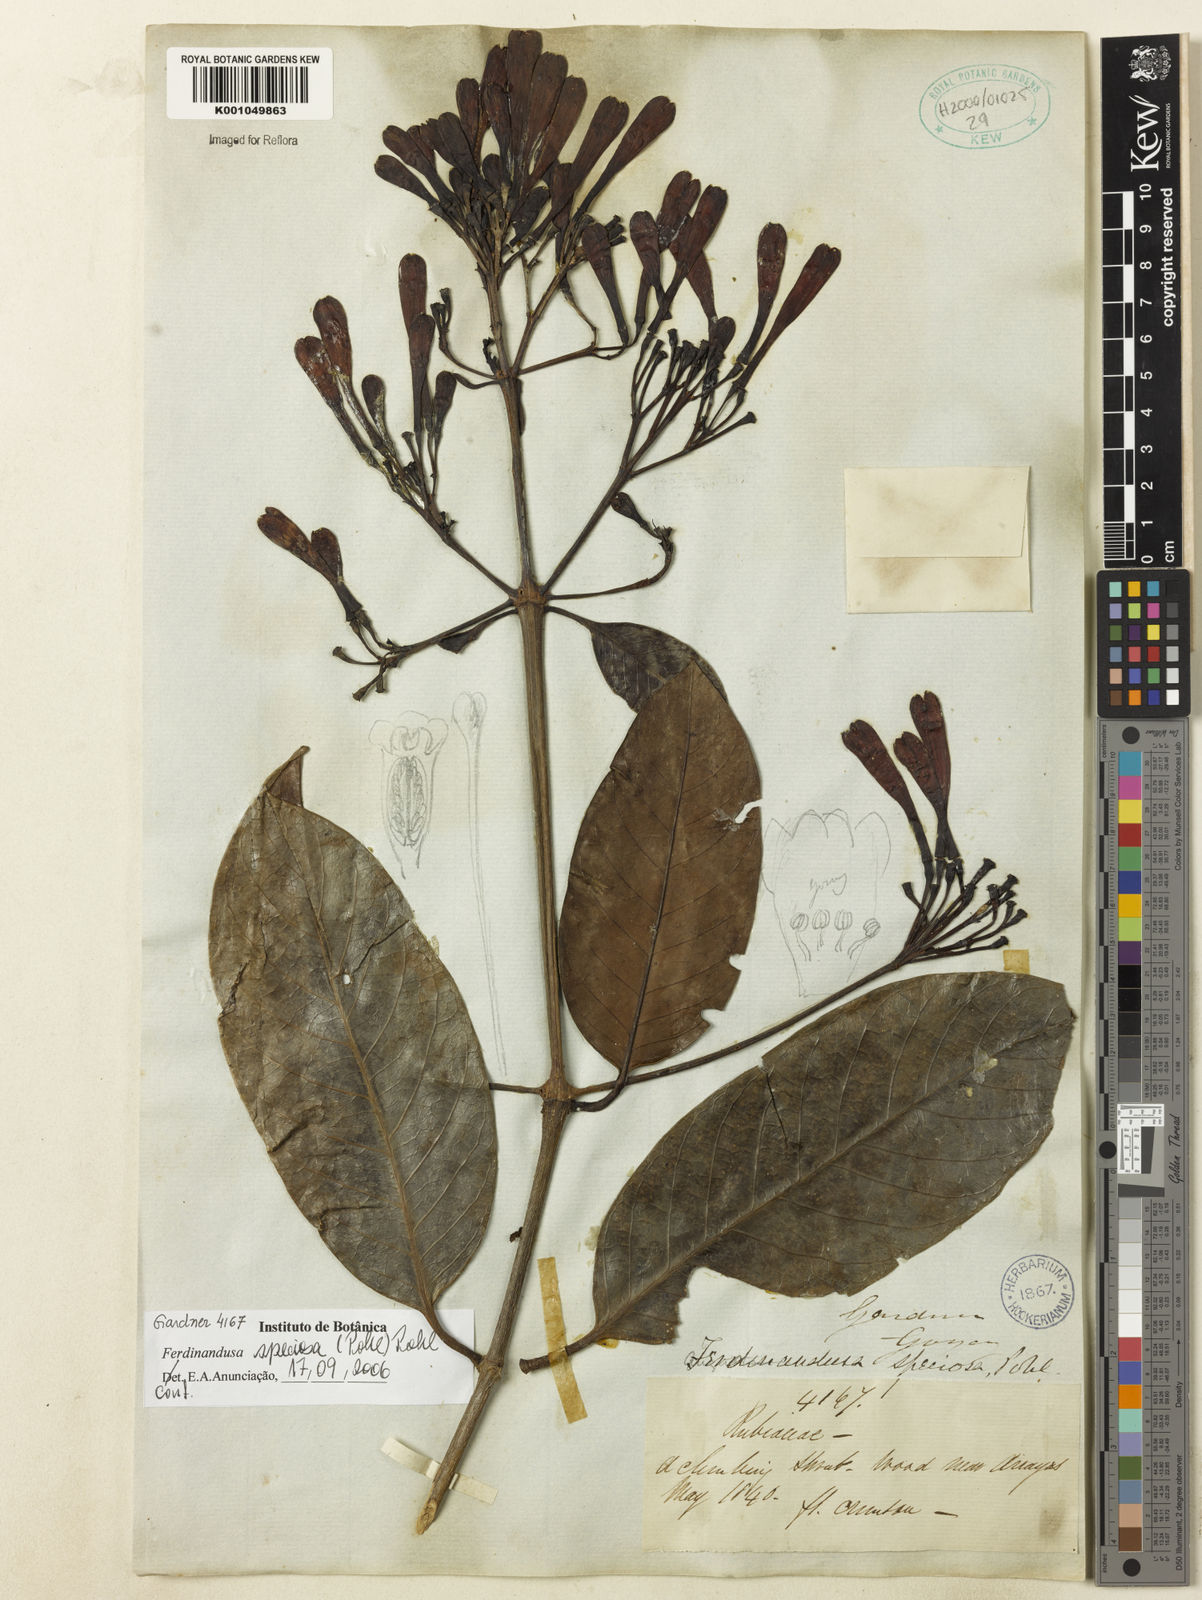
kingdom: Plantae
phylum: Tracheophyta
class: Magnoliopsida
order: Gentianales
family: Rubiaceae
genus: Ferdinandusa
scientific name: Ferdinandusa speciosa
